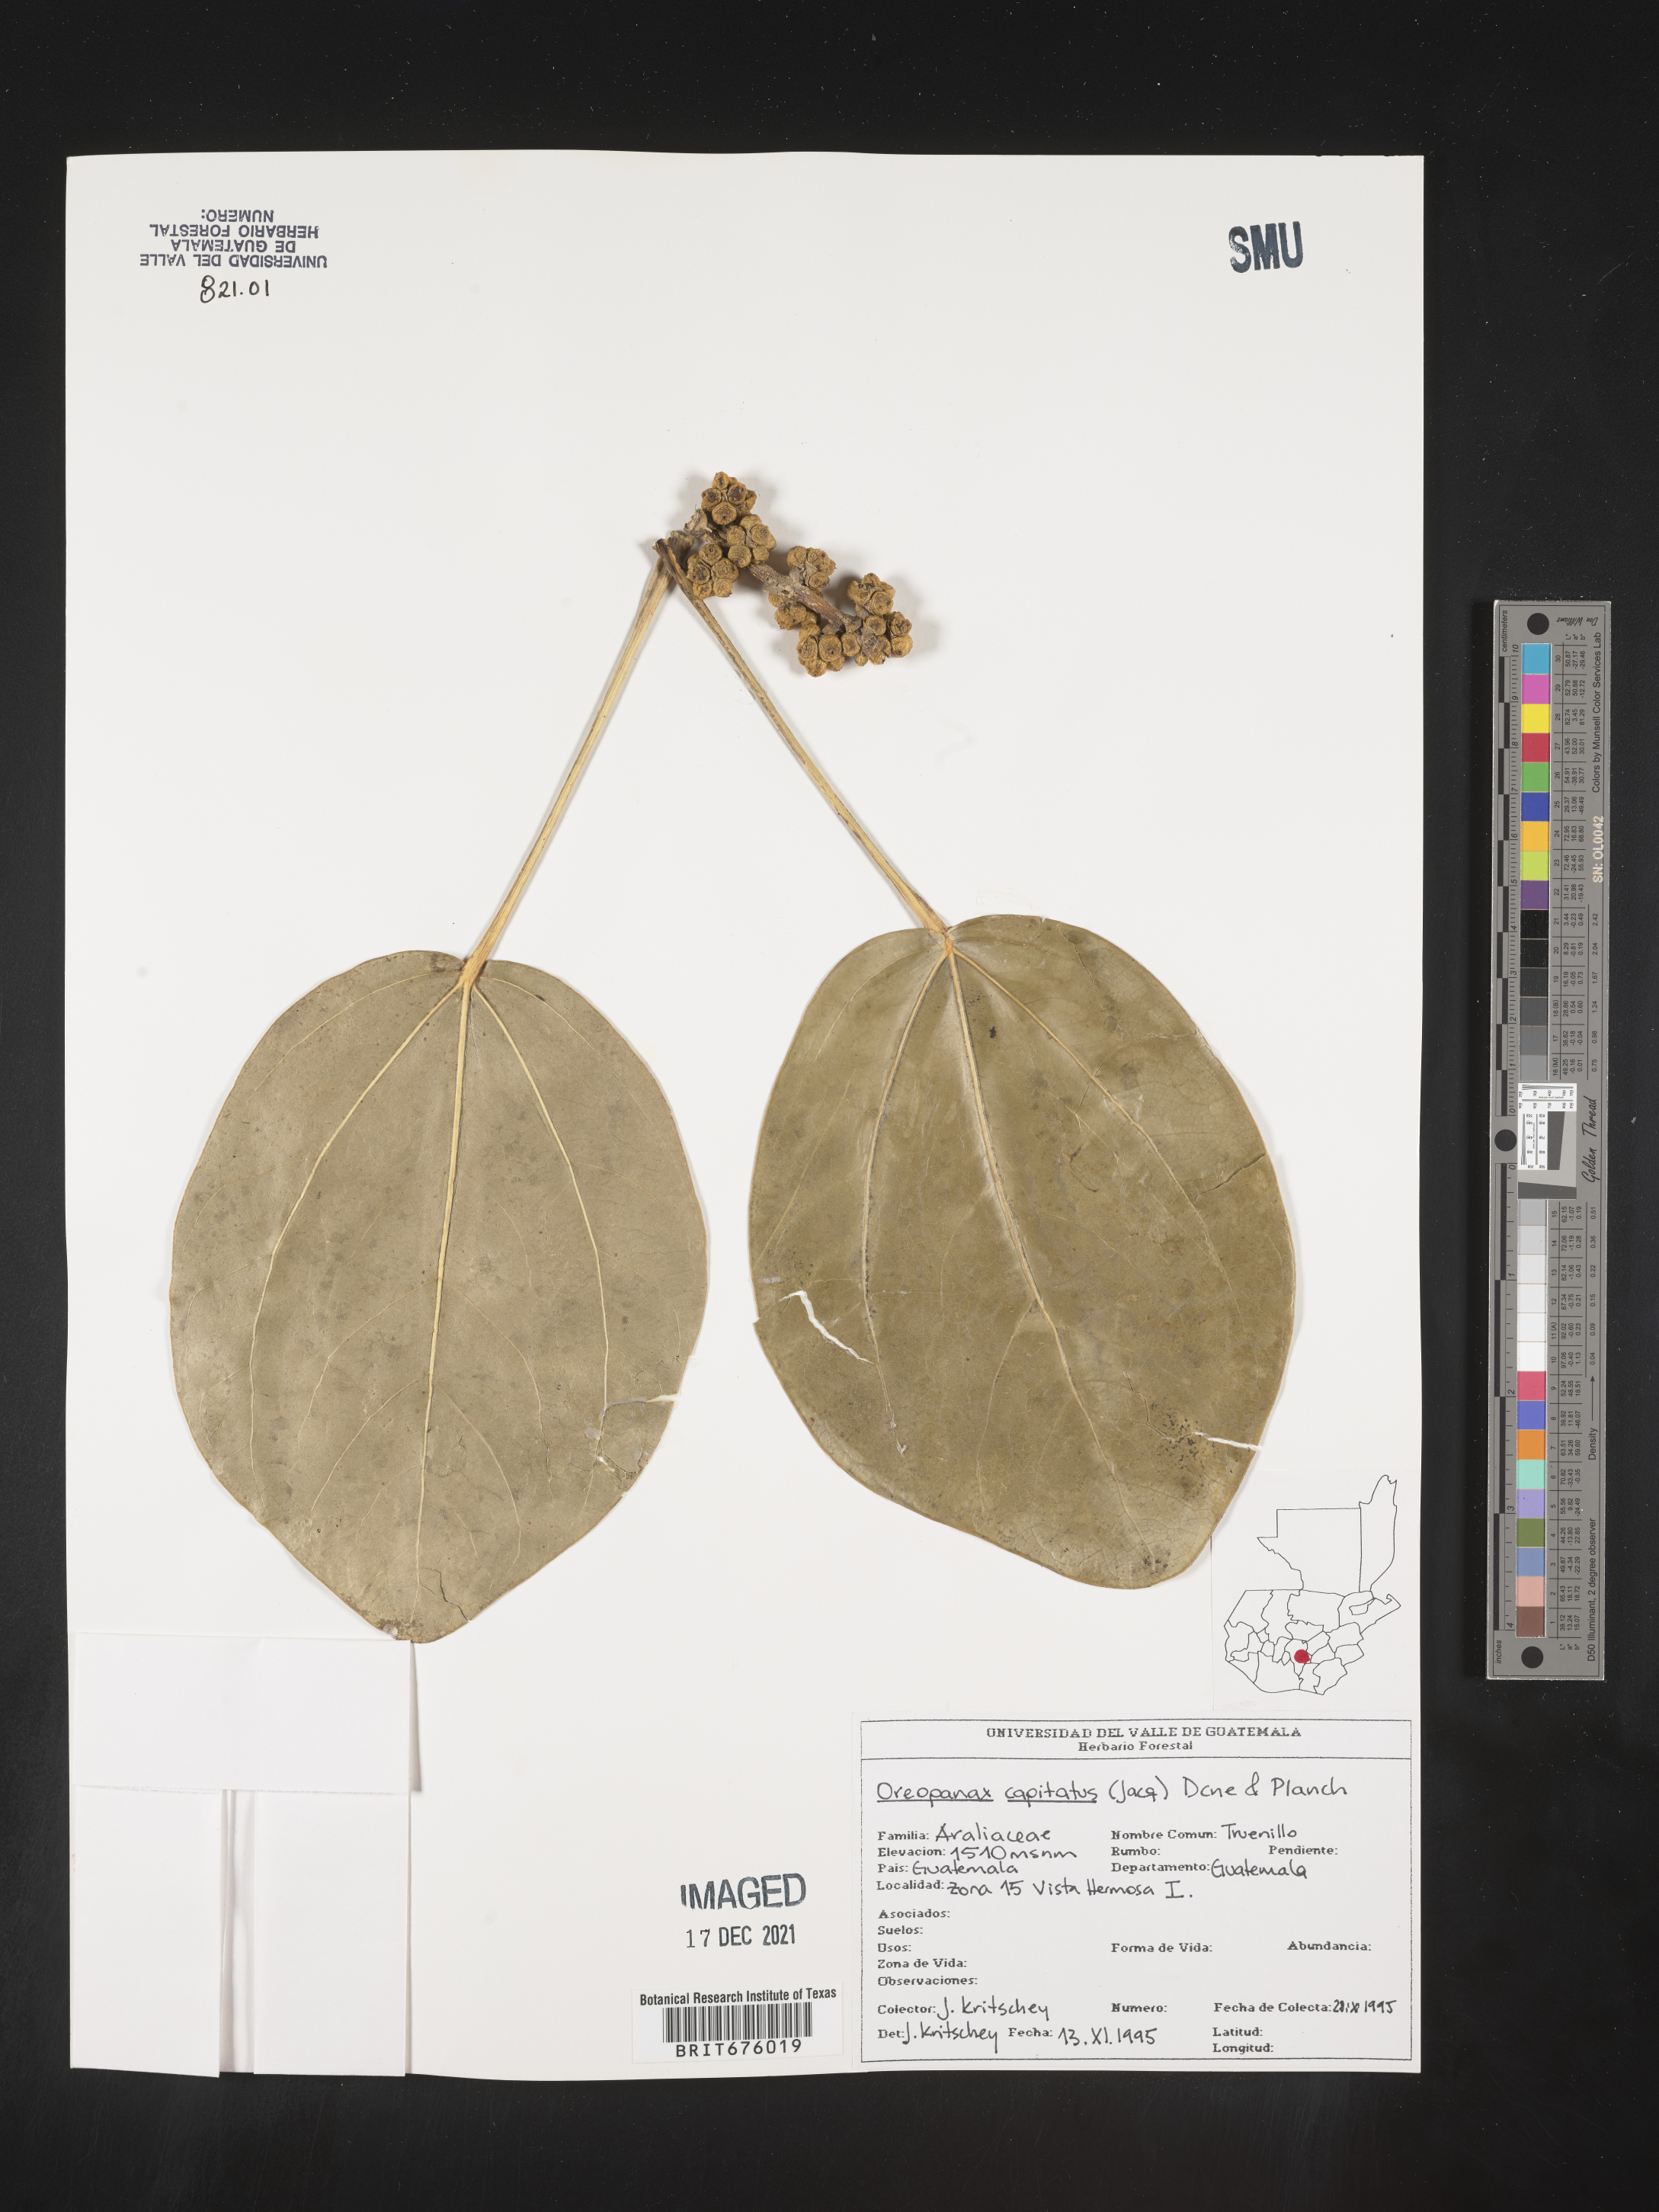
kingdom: Plantae
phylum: Tracheophyta
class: Magnoliopsida
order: Apiales
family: Araliaceae
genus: Oreopanax
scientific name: Oreopanax
